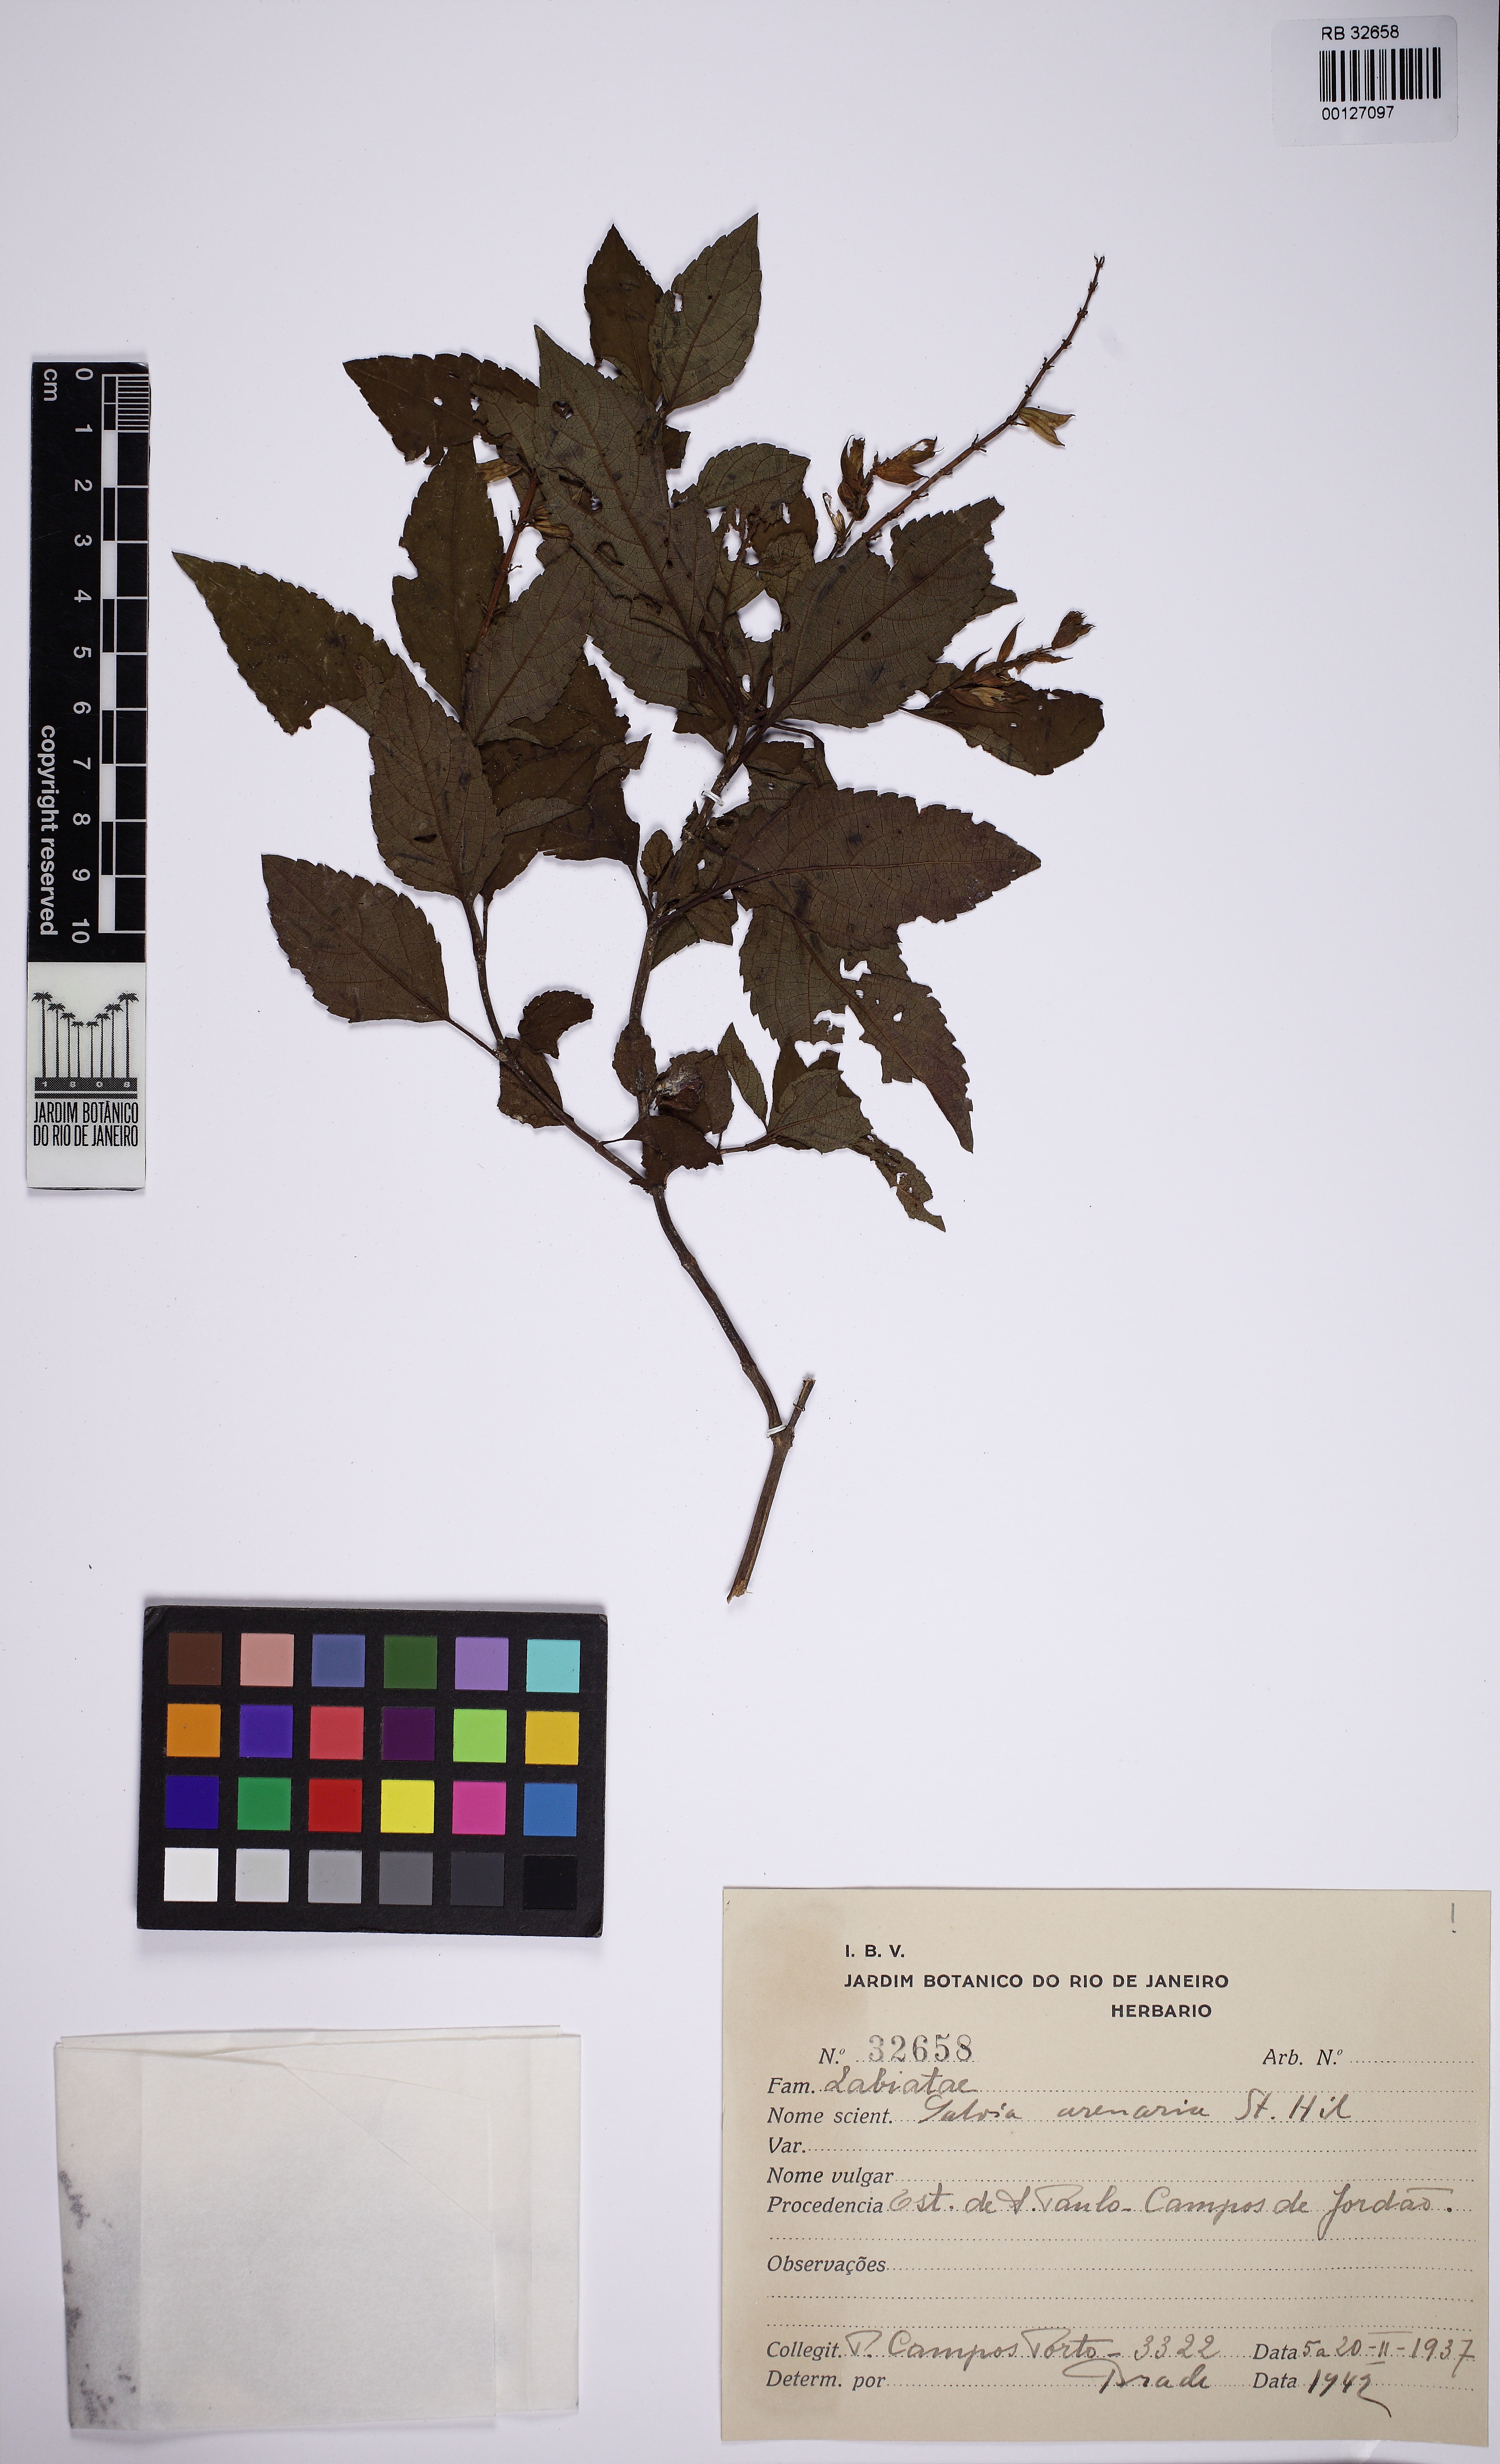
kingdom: Plantae
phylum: Tracheophyta
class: Magnoliopsida
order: Lamiales
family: Lamiaceae
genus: Salvia
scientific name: Salvia arenaria
